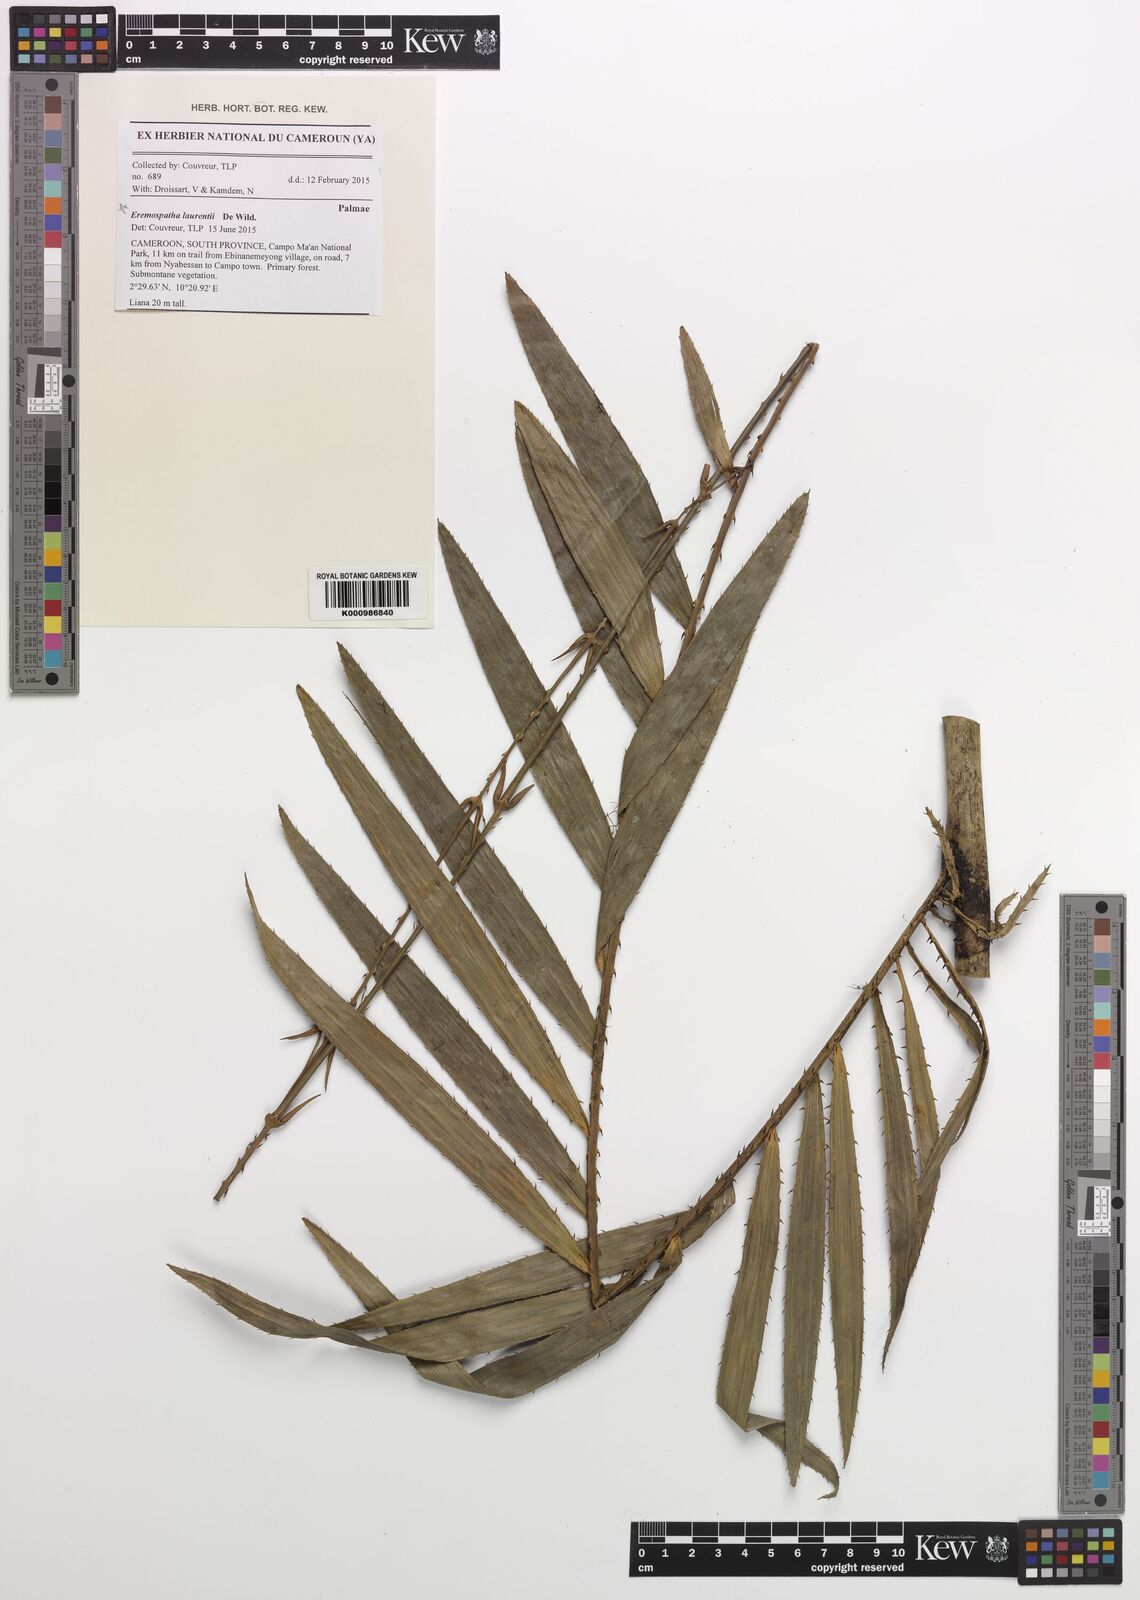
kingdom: Plantae
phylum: Tracheophyta
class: Liliopsida
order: Arecales
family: Arecaceae
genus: Eremospatha
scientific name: Eremospatha laurentii
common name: Rattan palm
